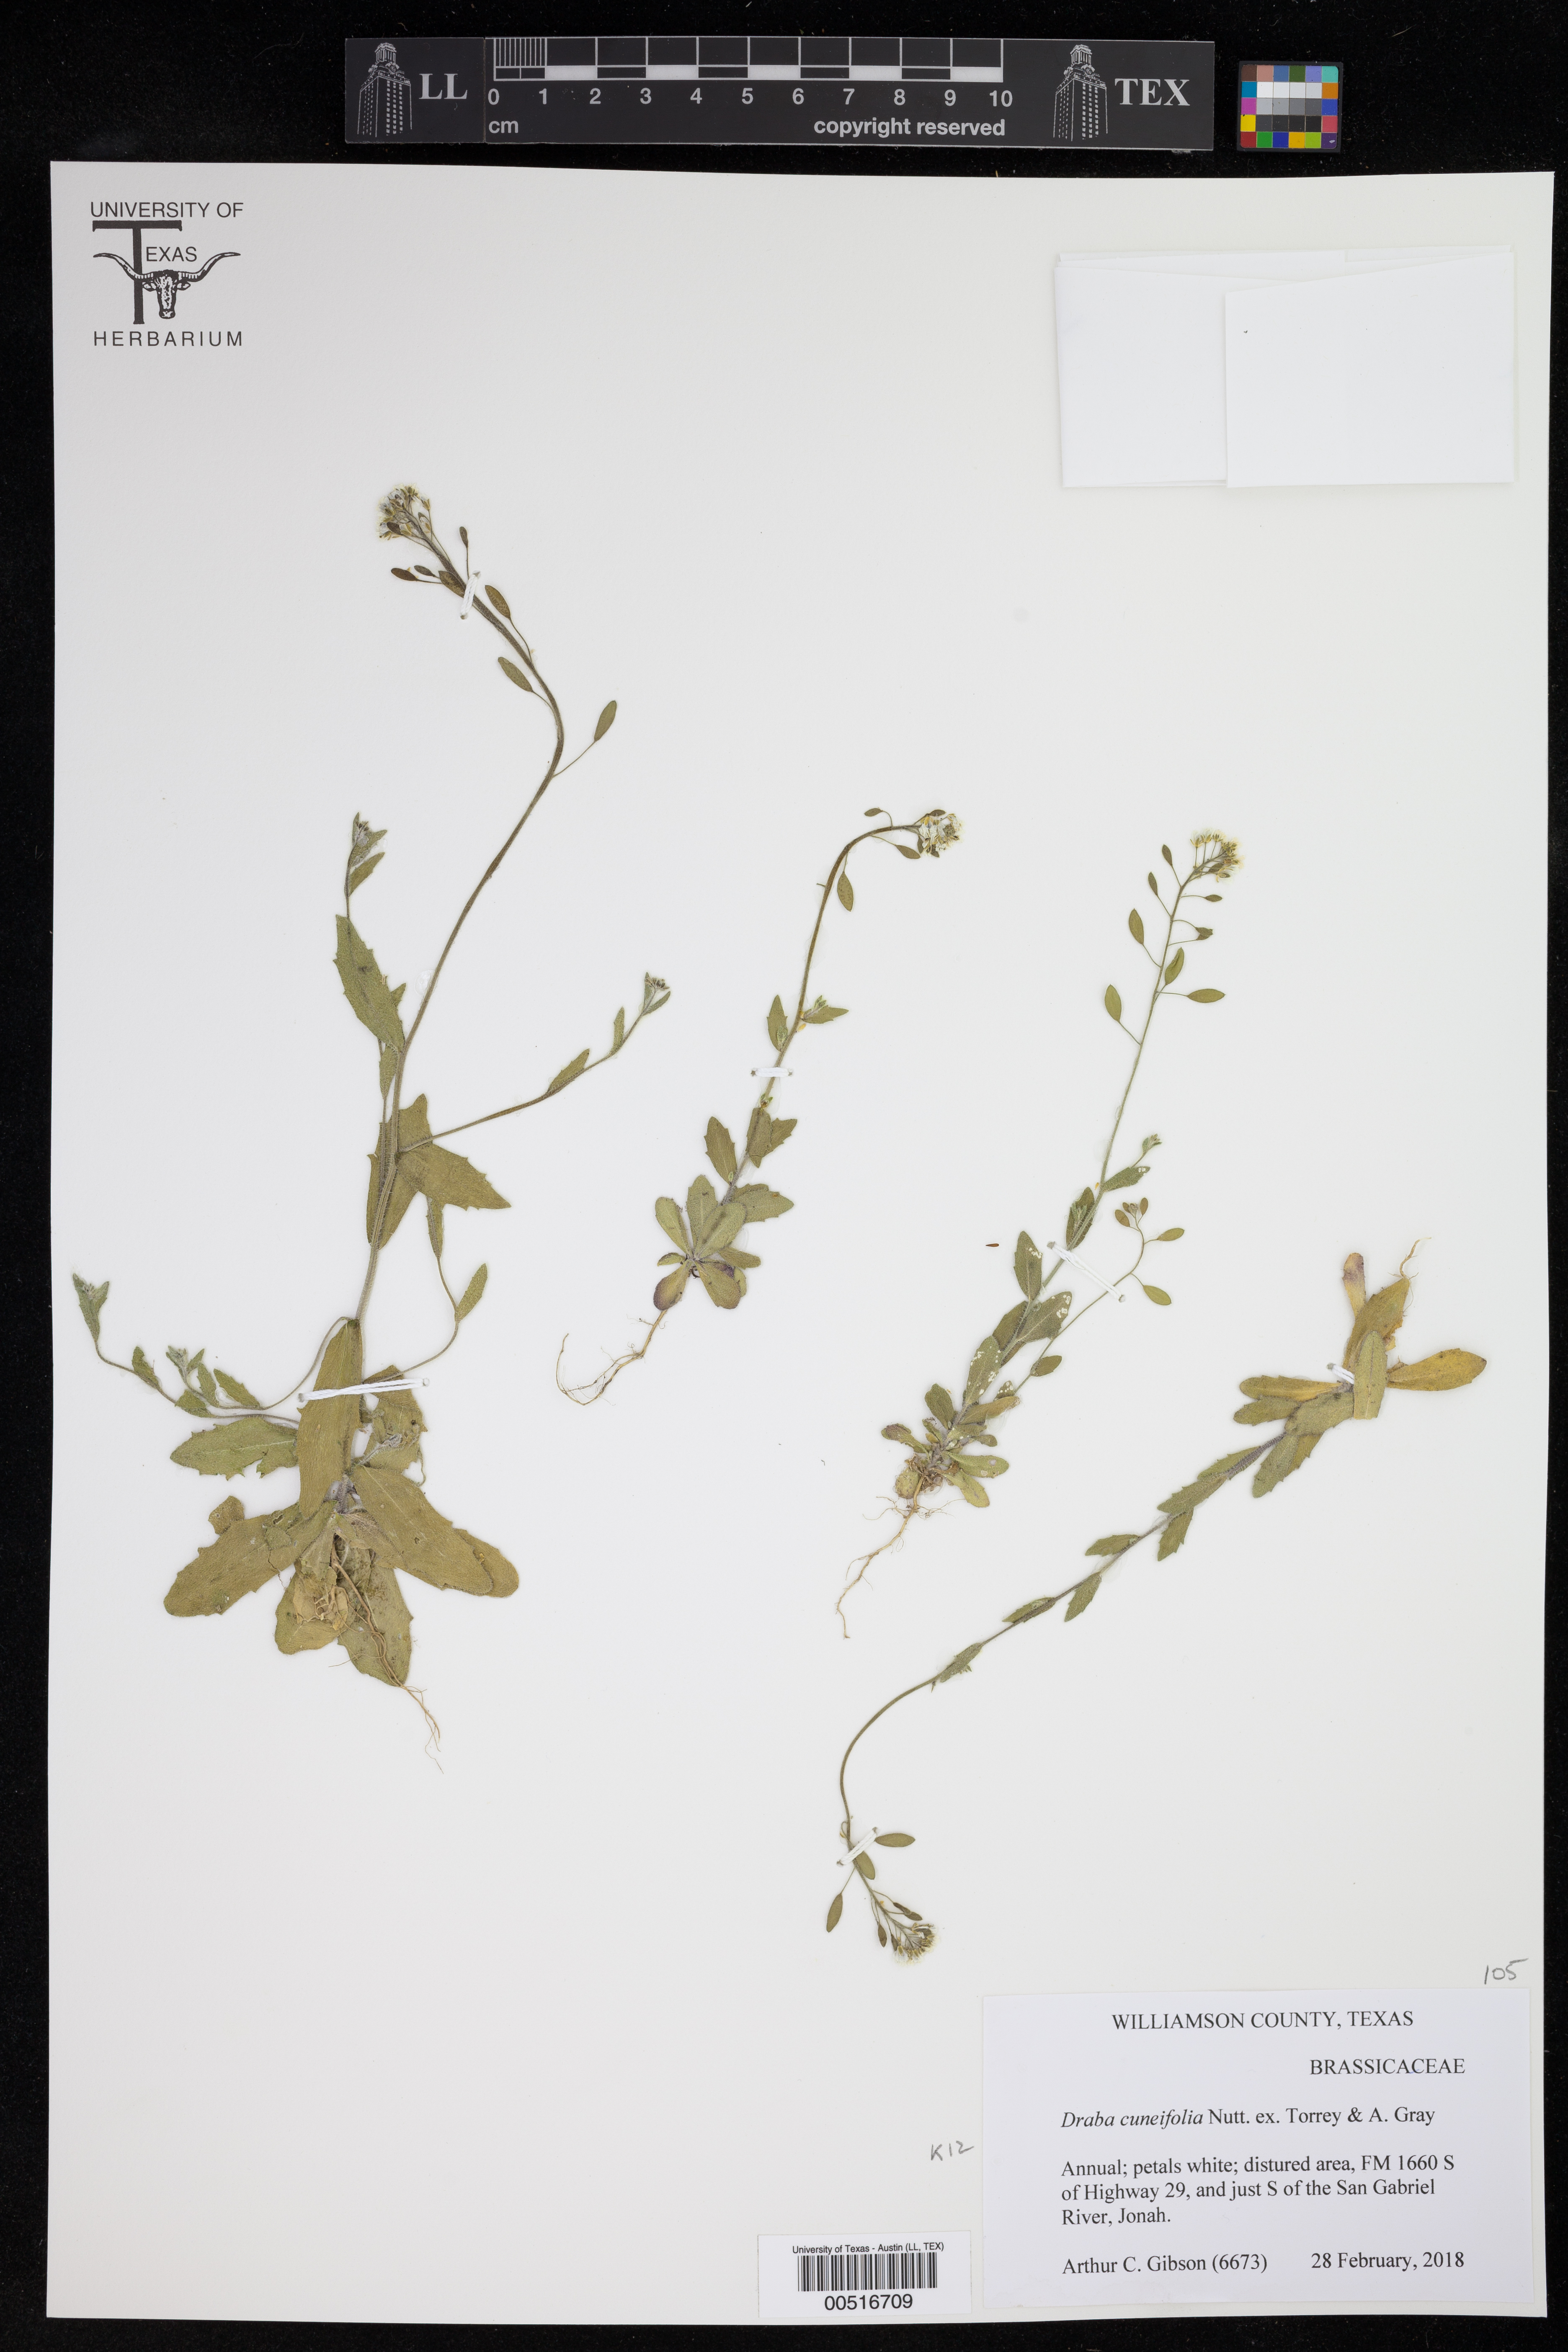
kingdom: Plantae
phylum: Tracheophyta
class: Magnoliopsida
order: Brassicales
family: Brassicaceae
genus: Tomostima
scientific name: Tomostima cuneifolia
